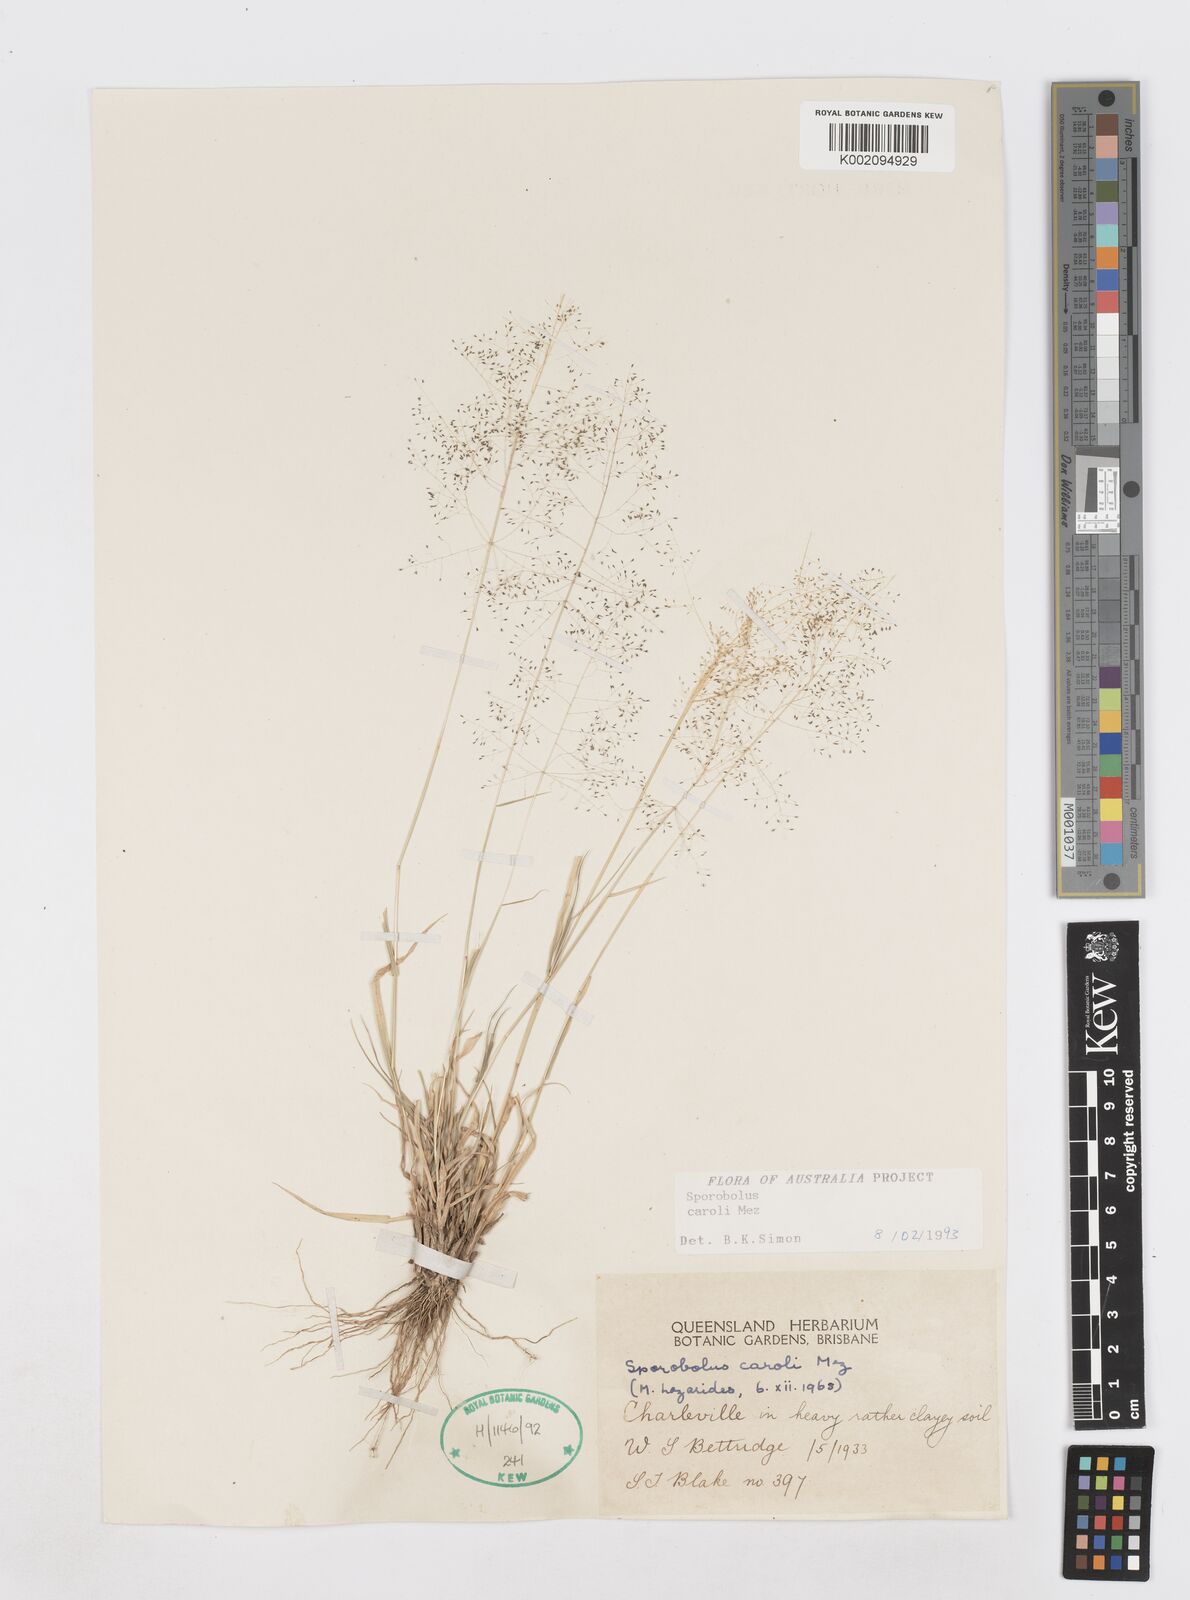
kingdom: Plantae
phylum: Tracheophyta
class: Liliopsida
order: Poales
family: Poaceae
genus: Sporobolus
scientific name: Sporobolus caroli
